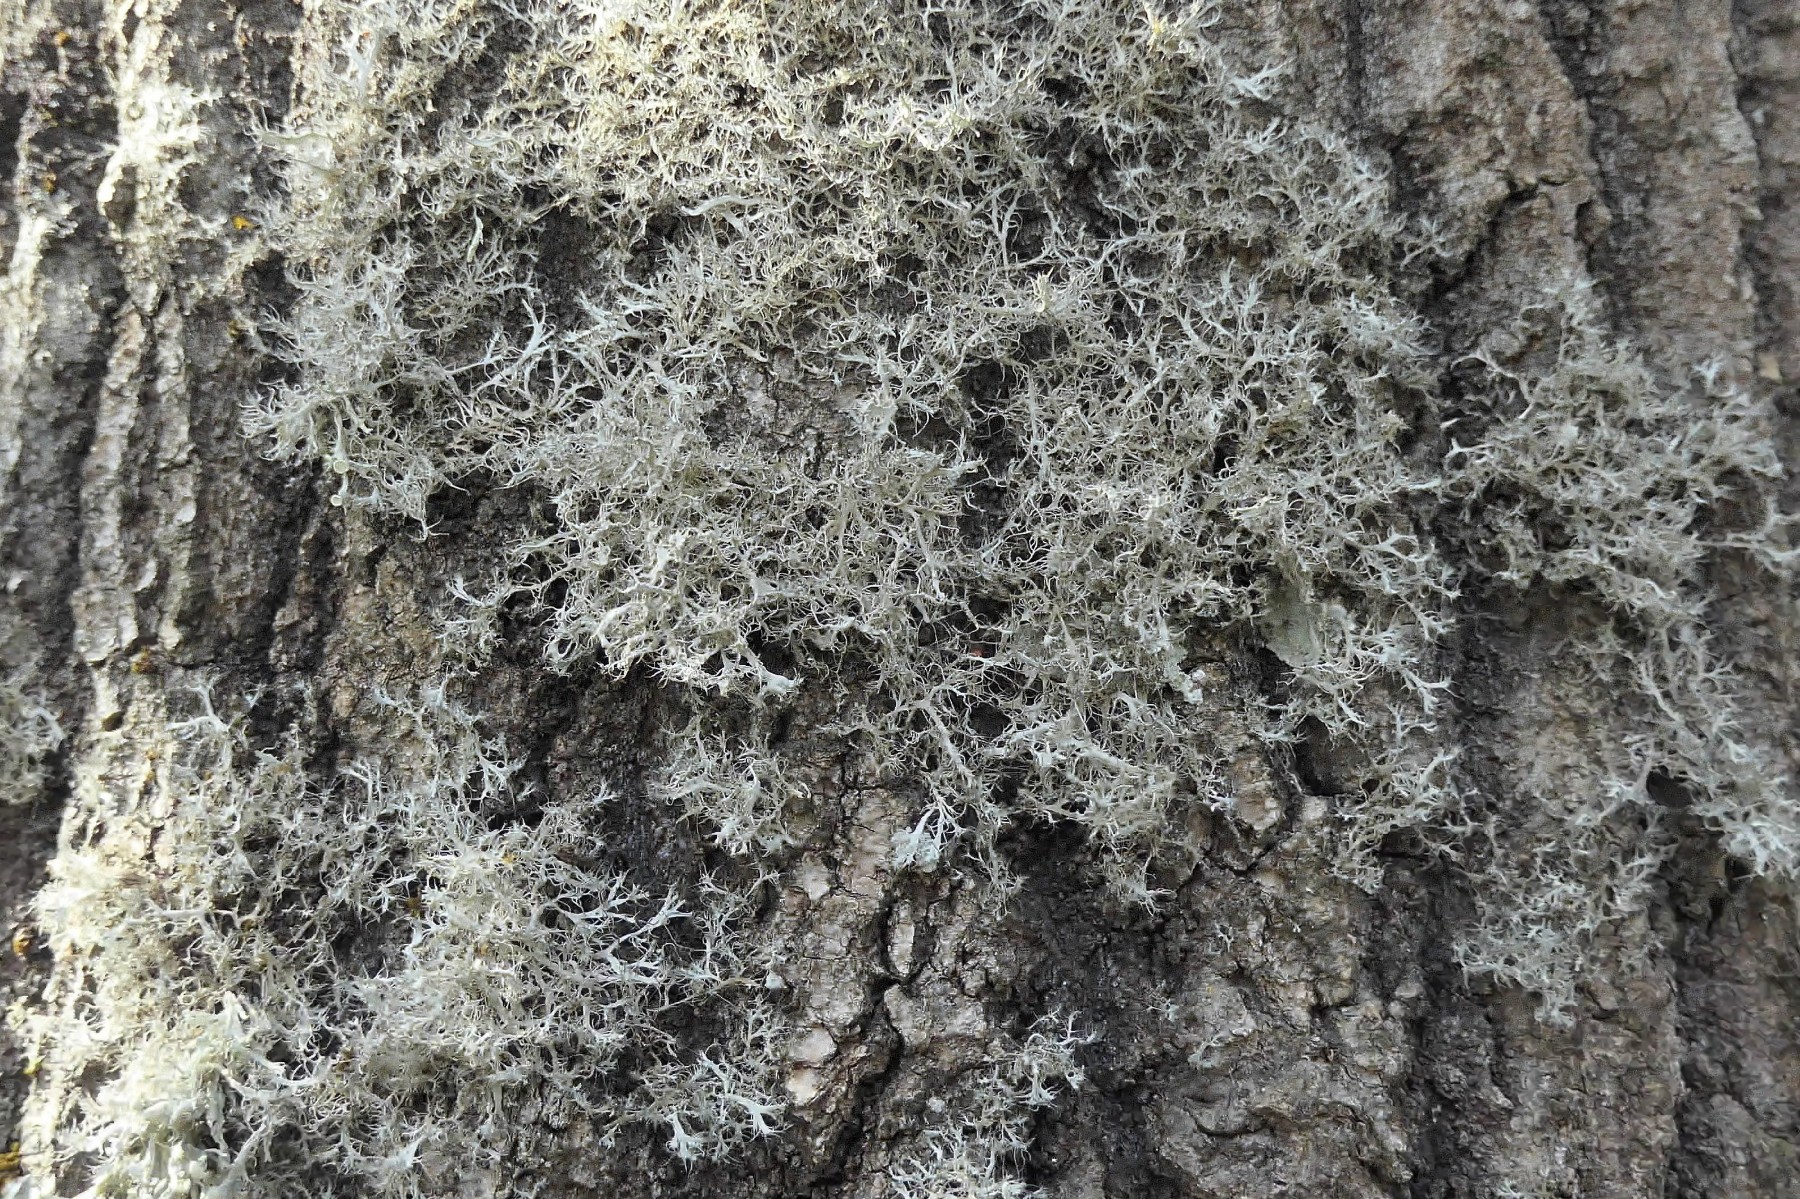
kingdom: Fungi
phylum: Ascomycota
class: Lecanoromycetes
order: Caliciales
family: Physciaceae
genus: Anaptychia
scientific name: Anaptychia ciliaris
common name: allé-frynselav
